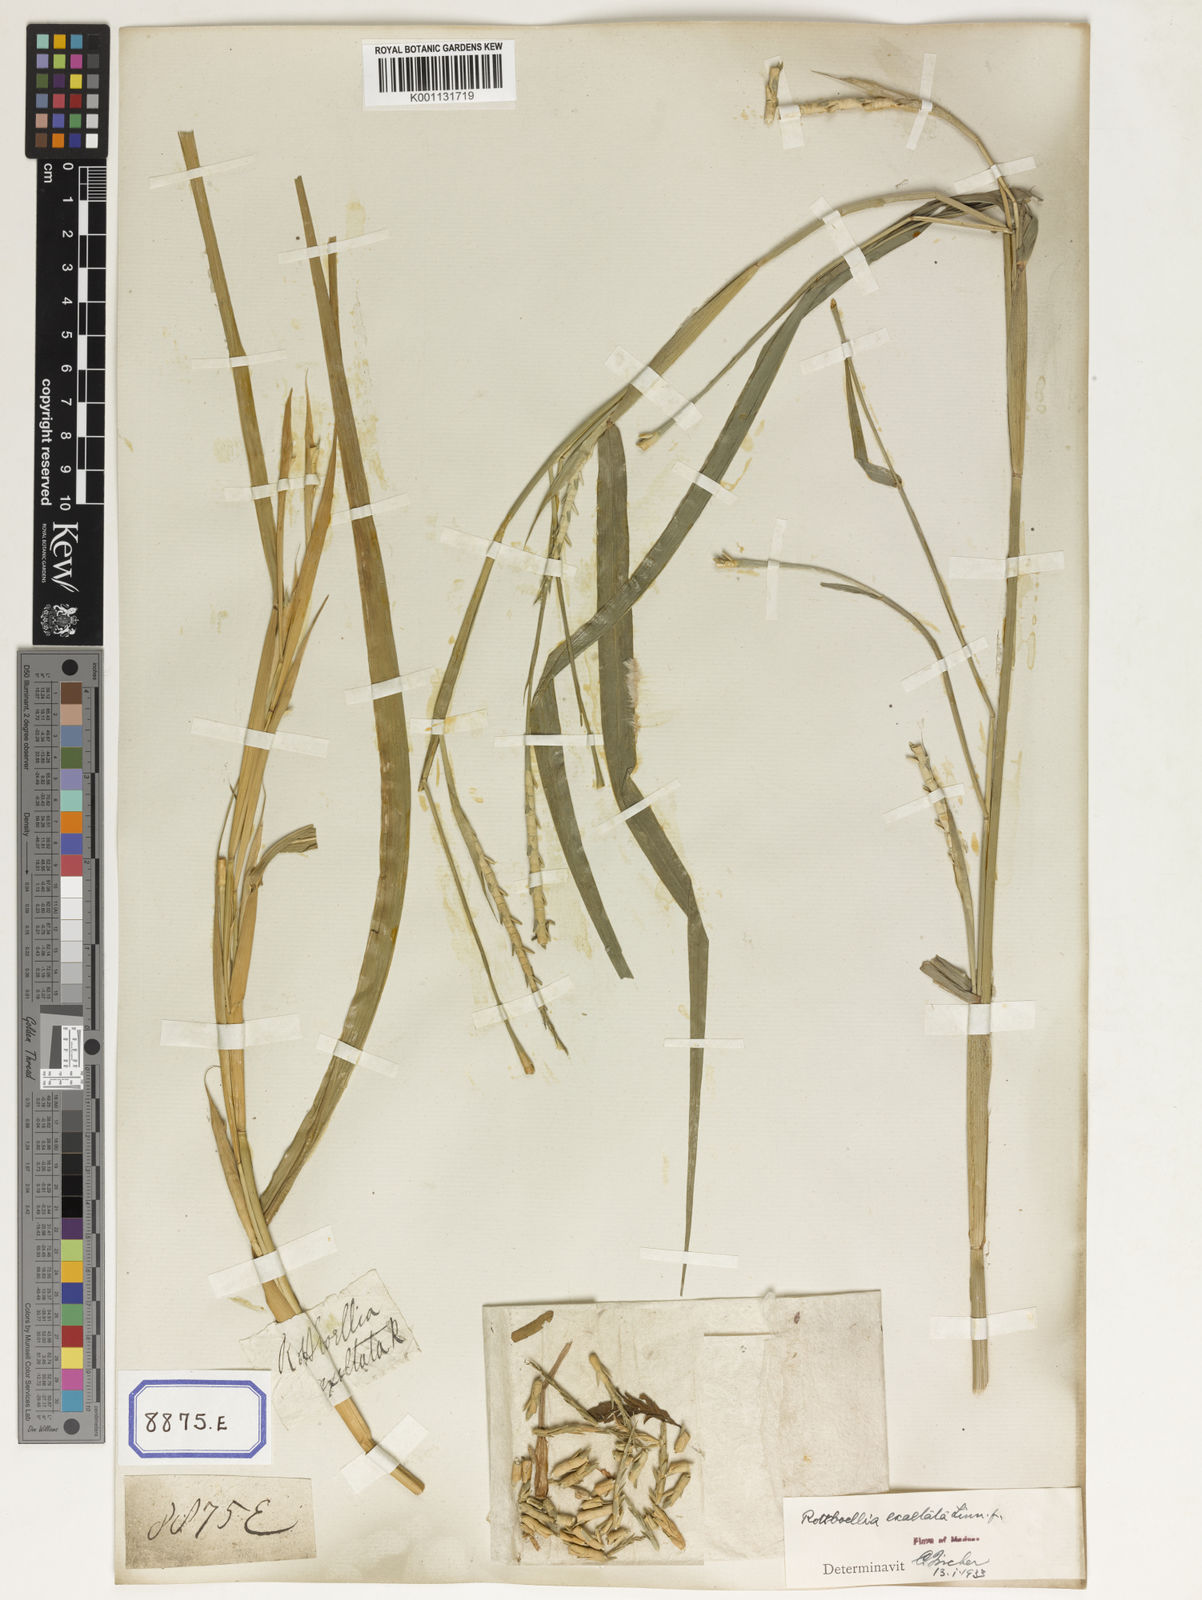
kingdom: Plantae
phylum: Tracheophyta
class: Liliopsida
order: Poales
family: Poaceae
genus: Ophiuros
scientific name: Ophiuros exaltatus
